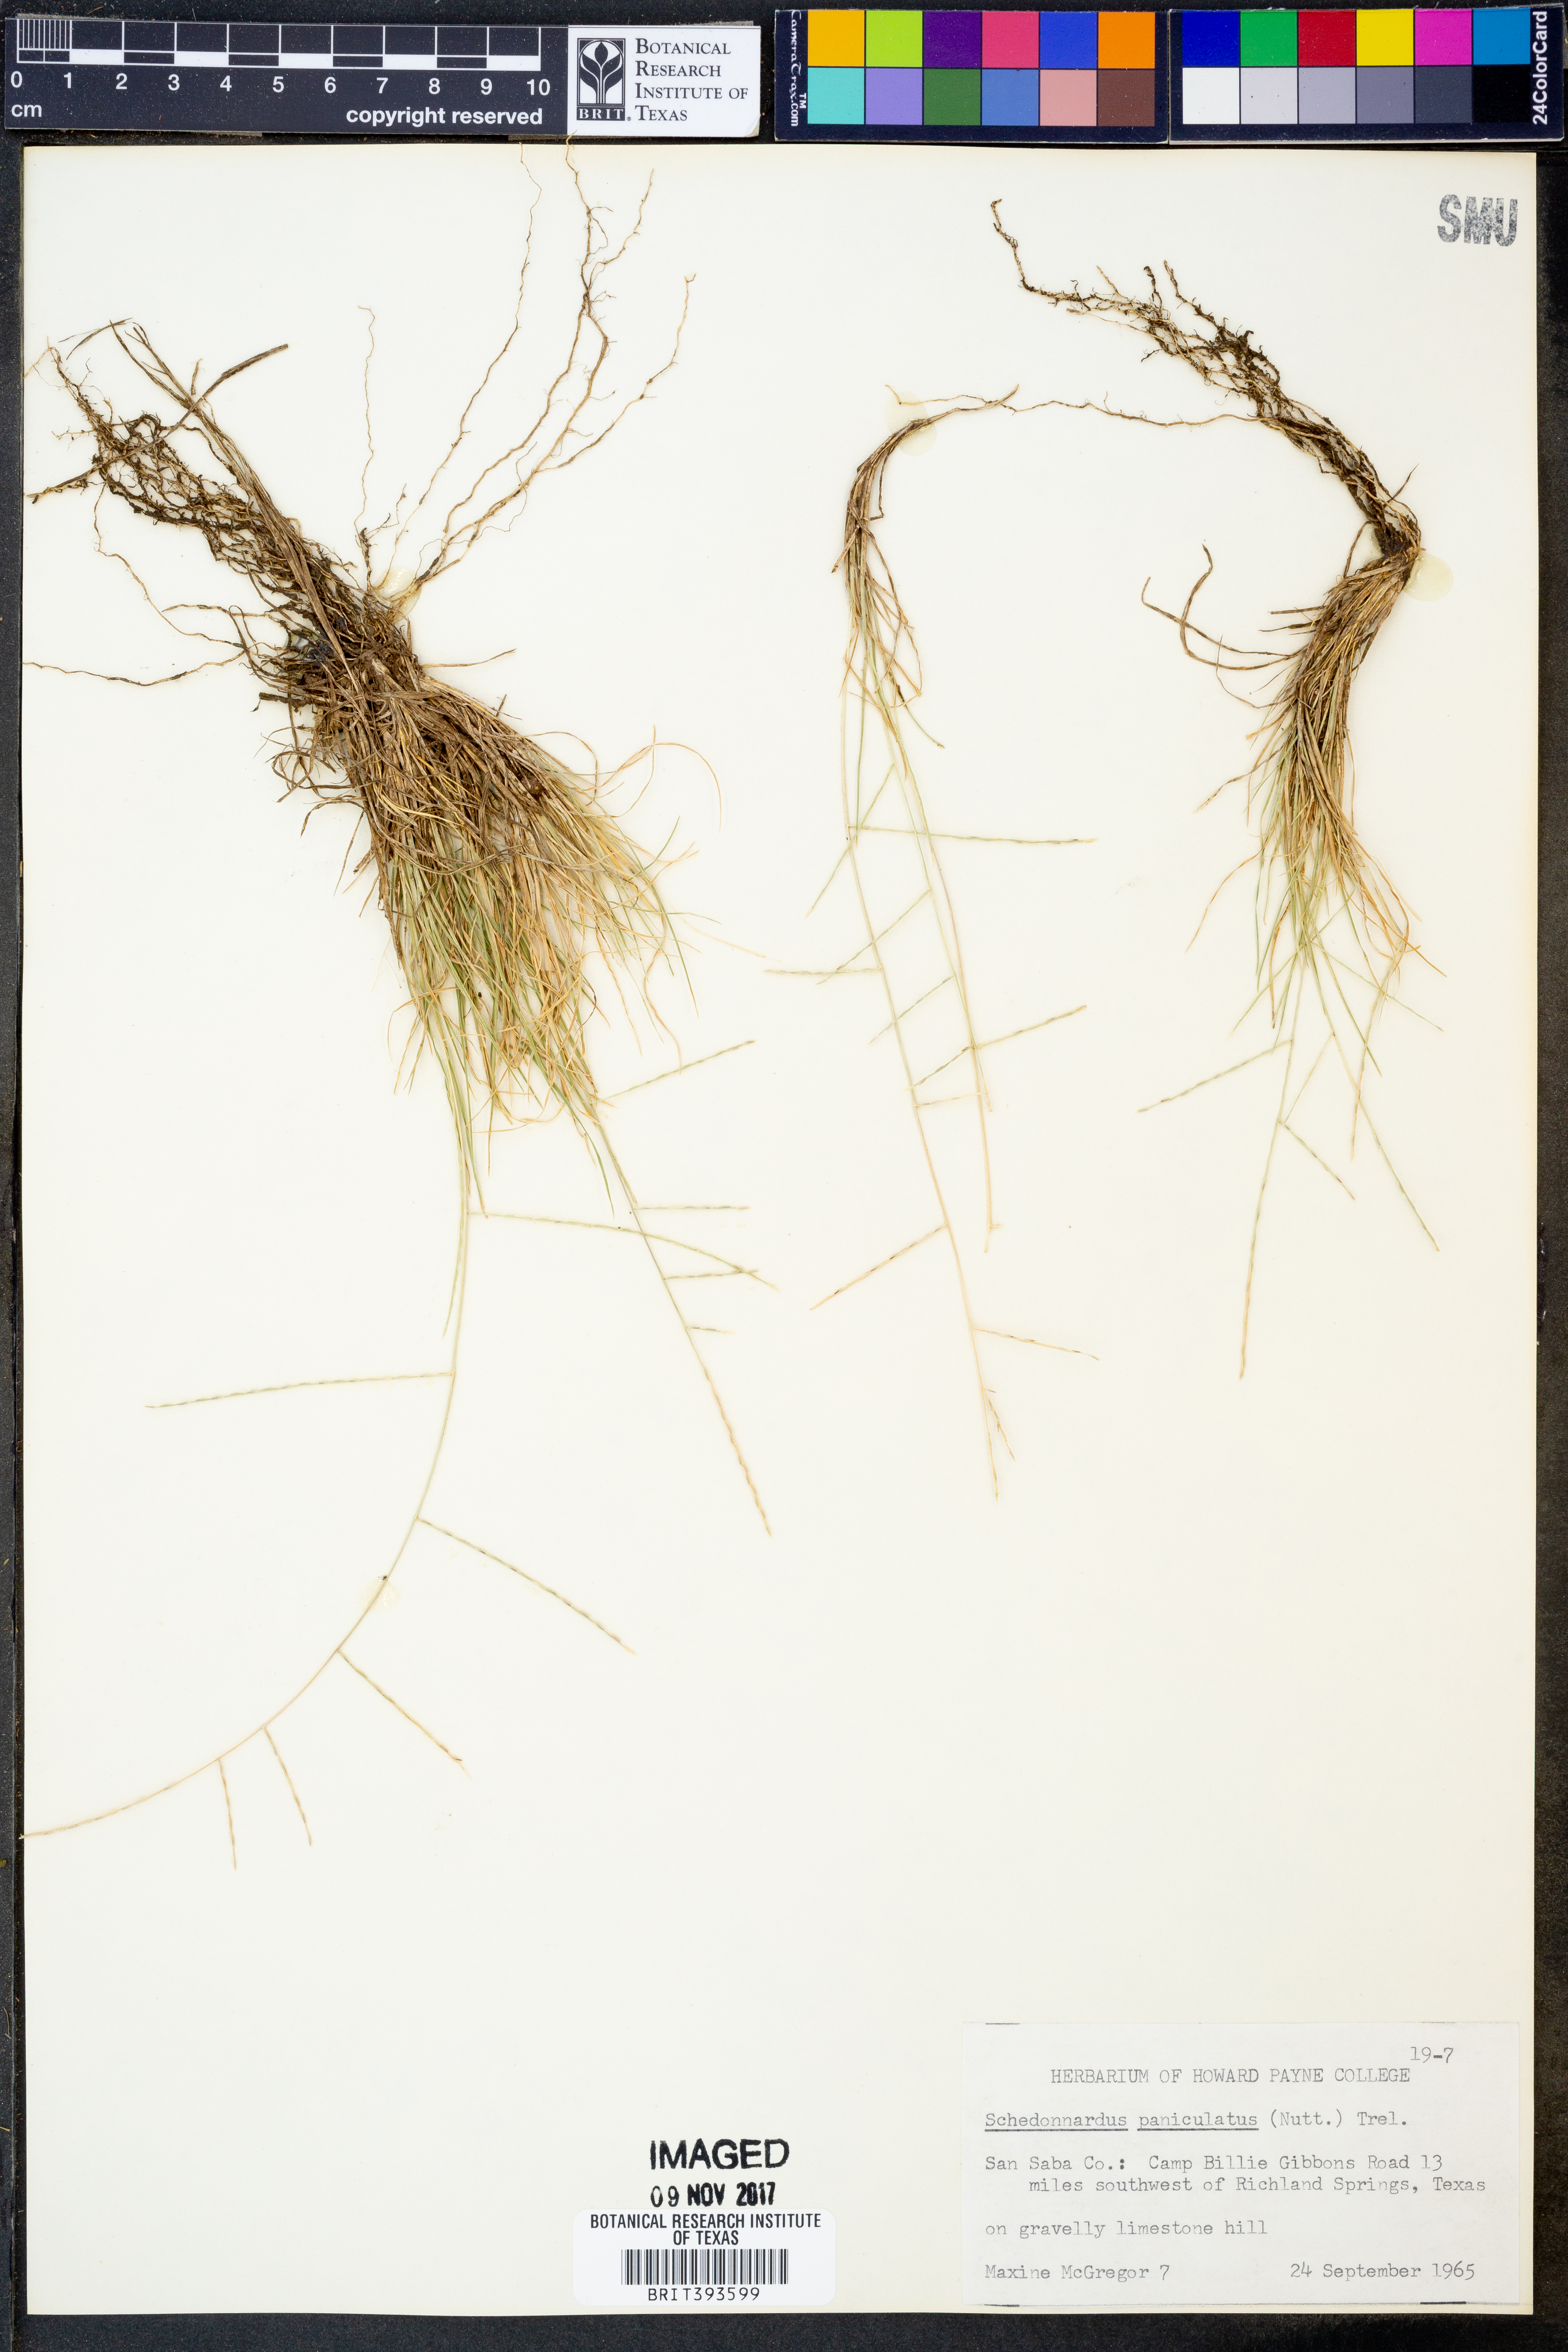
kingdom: Plantae
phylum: Tracheophyta
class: Liliopsida
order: Poales
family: Poaceae
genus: Muhlenbergia
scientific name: Muhlenbergia paniculata
